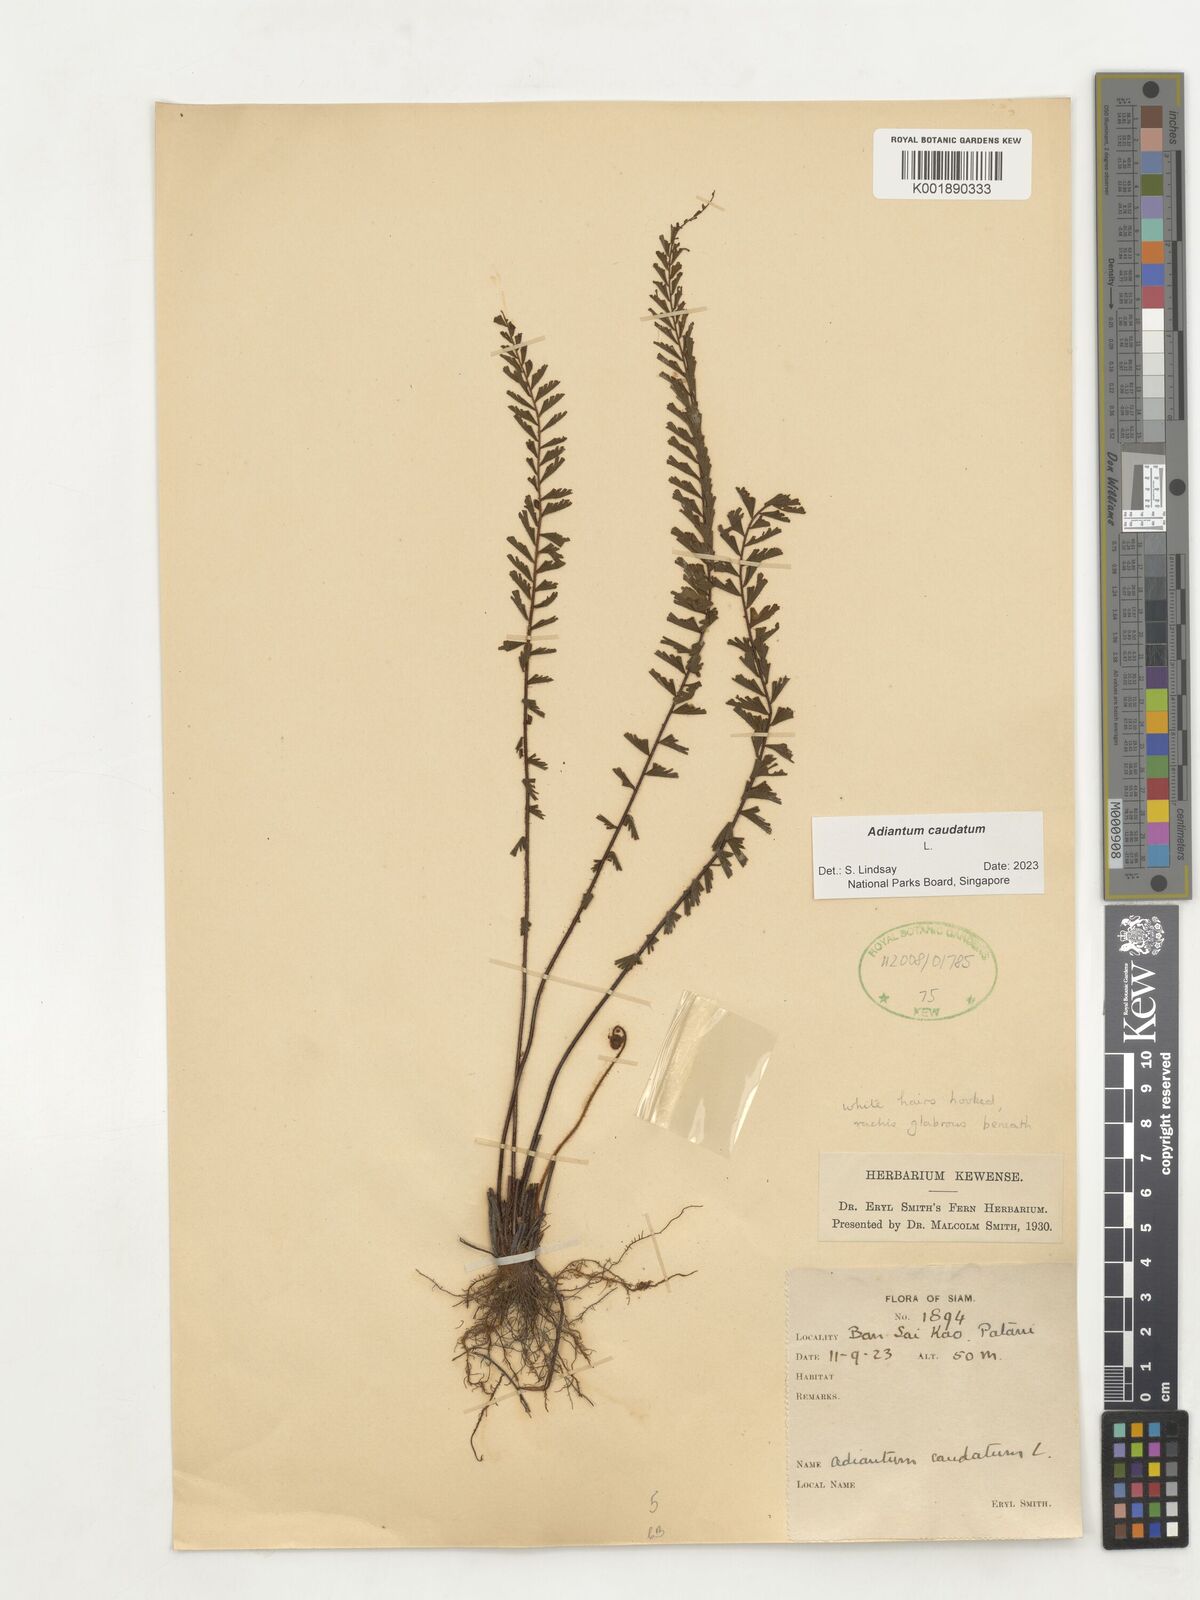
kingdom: Plantae
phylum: Tracheophyta
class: Polypodiopsida
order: Polypodiales
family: Pteridaceae
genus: Adiantum
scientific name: Adiantum caudatum
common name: Tailed maidenhair
